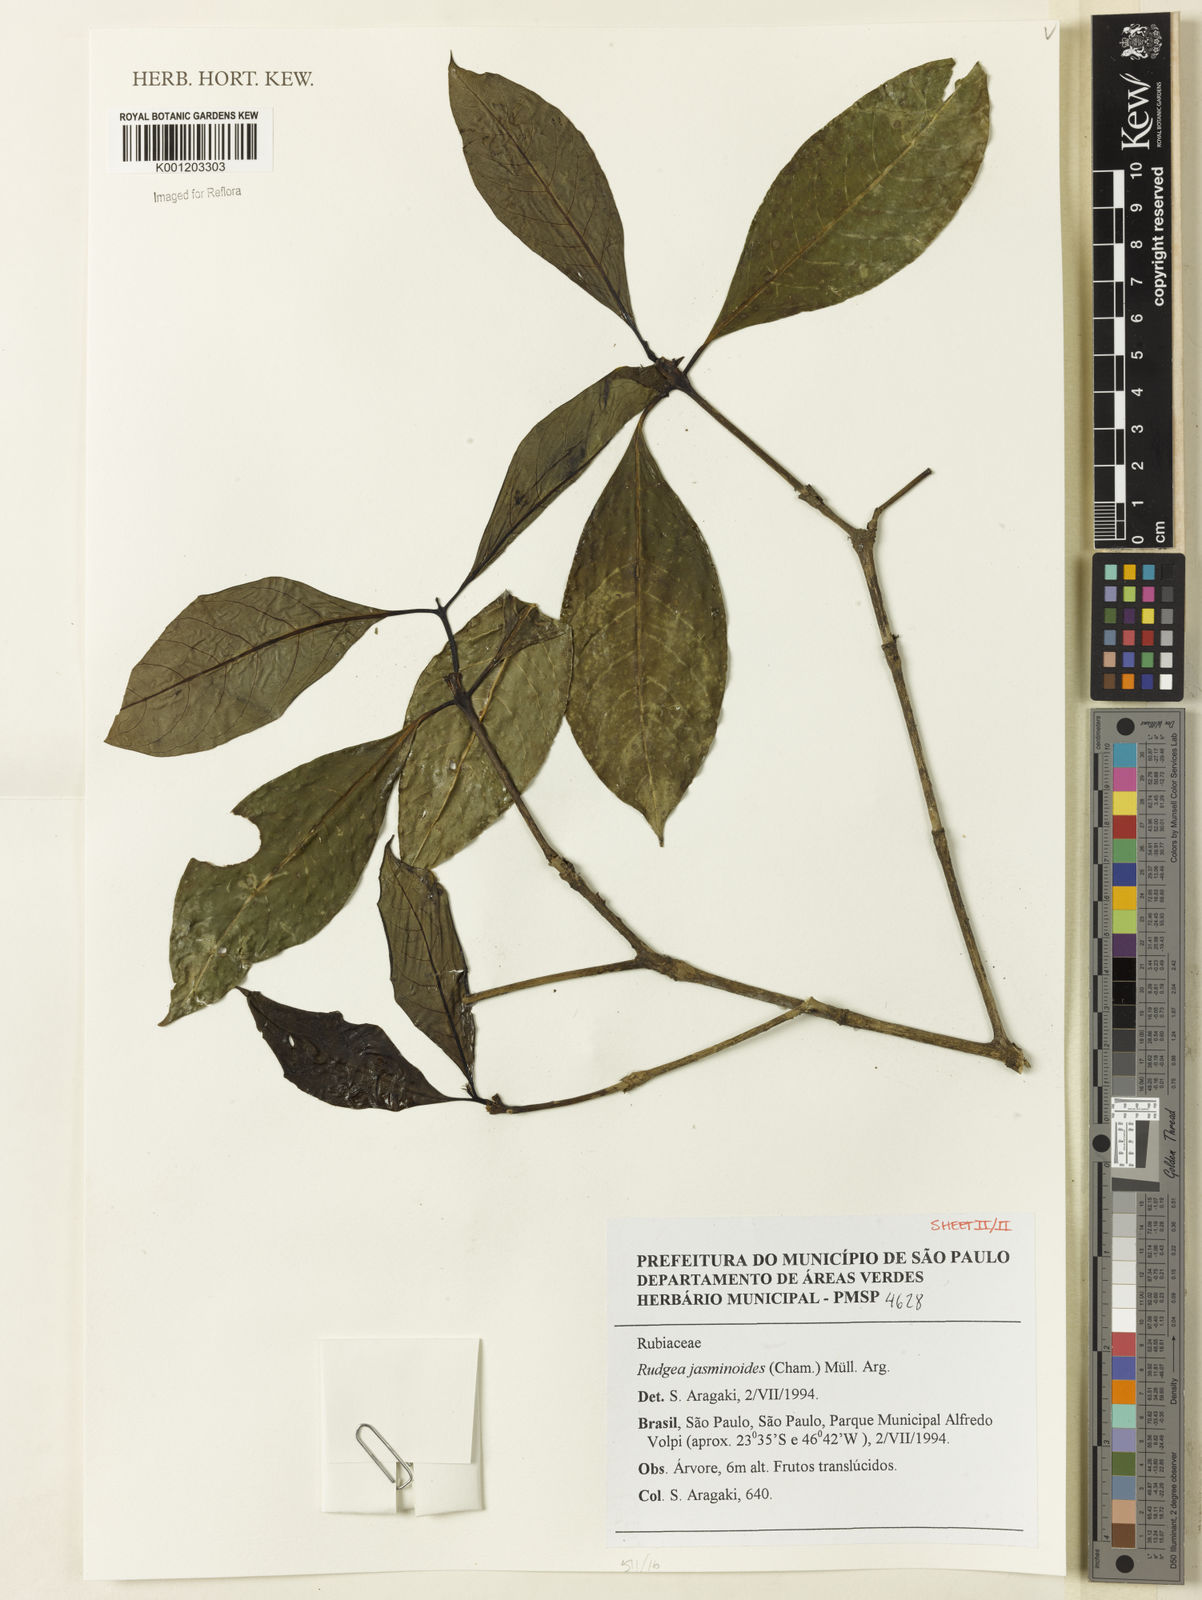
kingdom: Plantae
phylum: Tracheophyta
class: Magnoliopsida
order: Gentianales
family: Rubiaceae
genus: Rudgea
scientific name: Rudgea
